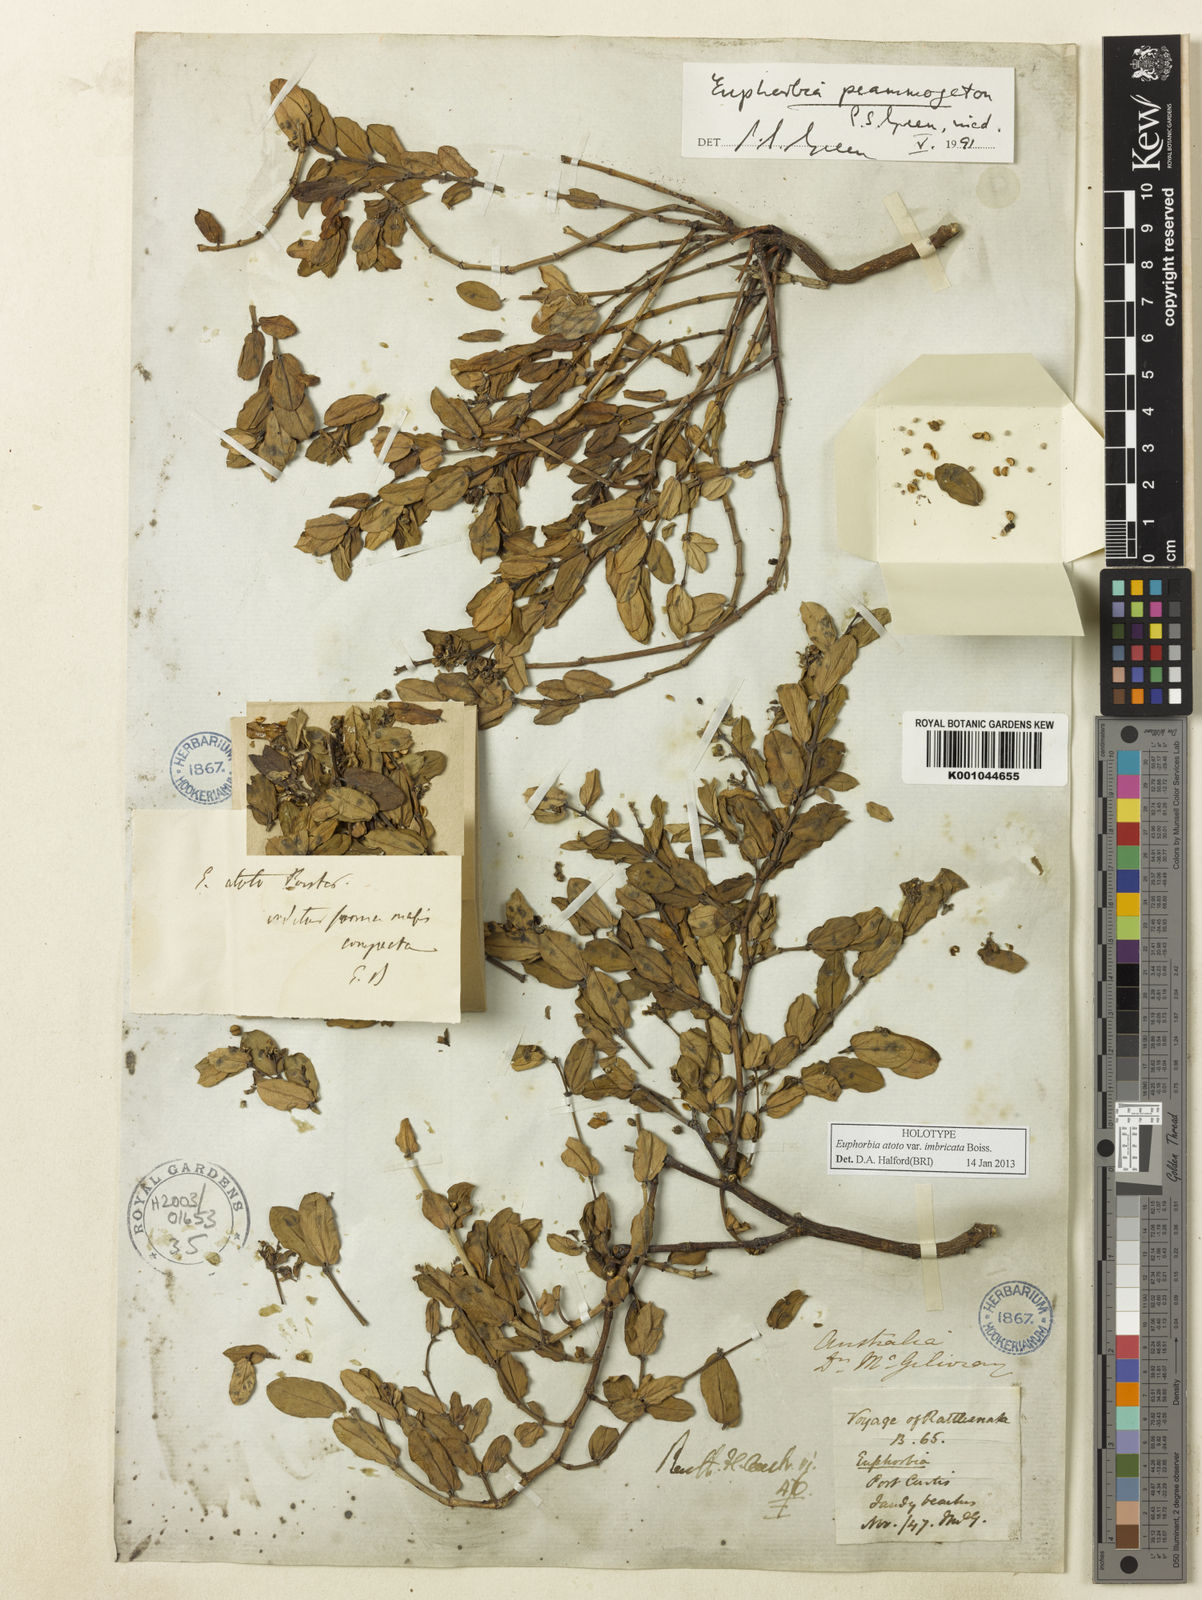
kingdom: Plantae
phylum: Tracheophyta
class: Magnoliopsida
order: Malpighiales
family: Euphorbiaceae
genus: Euphorbia
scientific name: Euphorbia psammogeton
